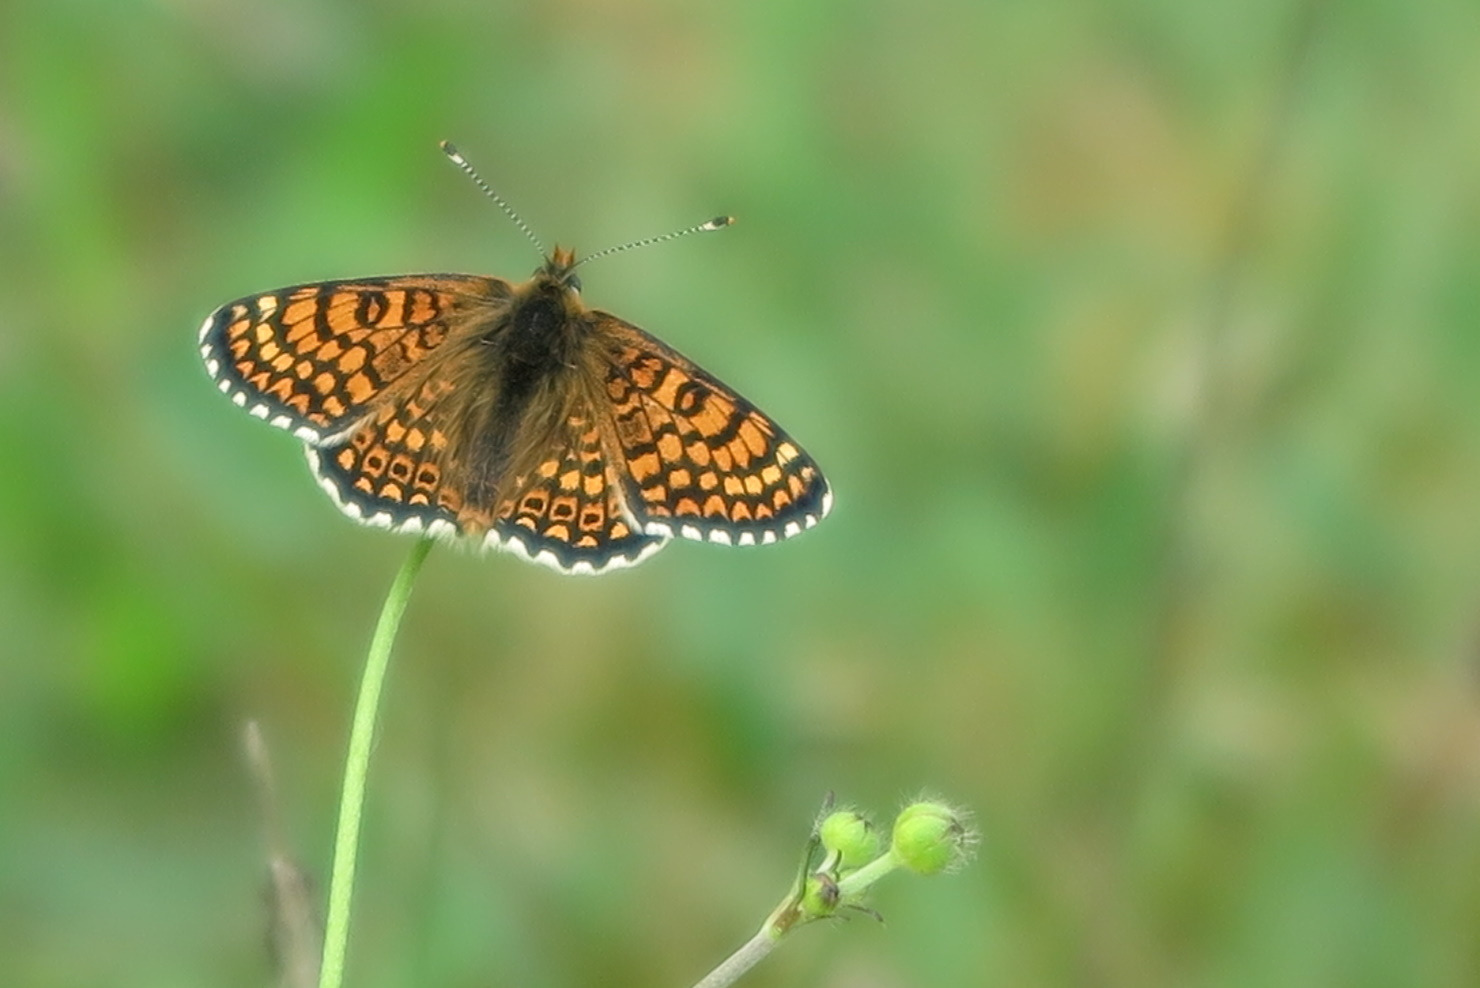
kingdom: Animalia
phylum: Arthropoda
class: Insecta
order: Lepidoptera
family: Nymphalidae
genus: Melitaea
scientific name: Melitaea cinxia
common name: Okkergul pletvinge
